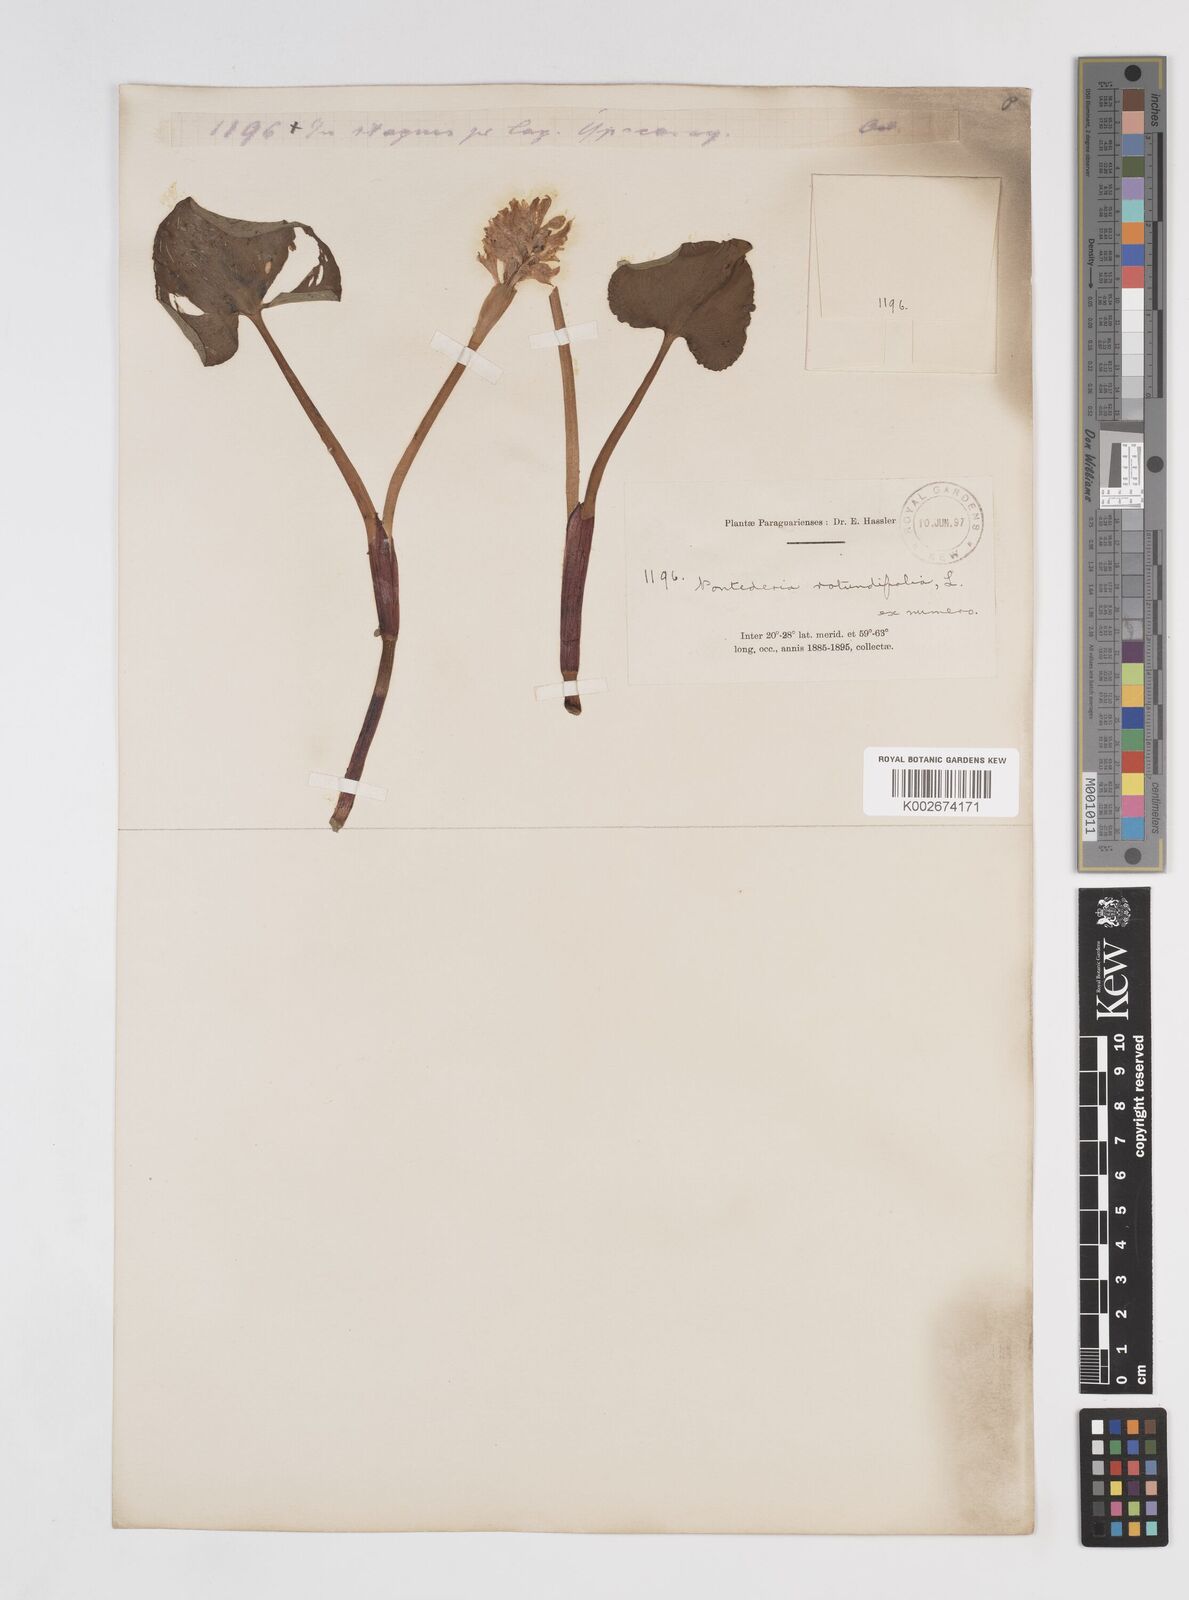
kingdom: Plantae
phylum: Tracheophyta
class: Liliopsida
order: Commelinales
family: Pontederiaceae
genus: Pontederia
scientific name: Pontederia rotundifolia
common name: Tropical pickerel-weed
